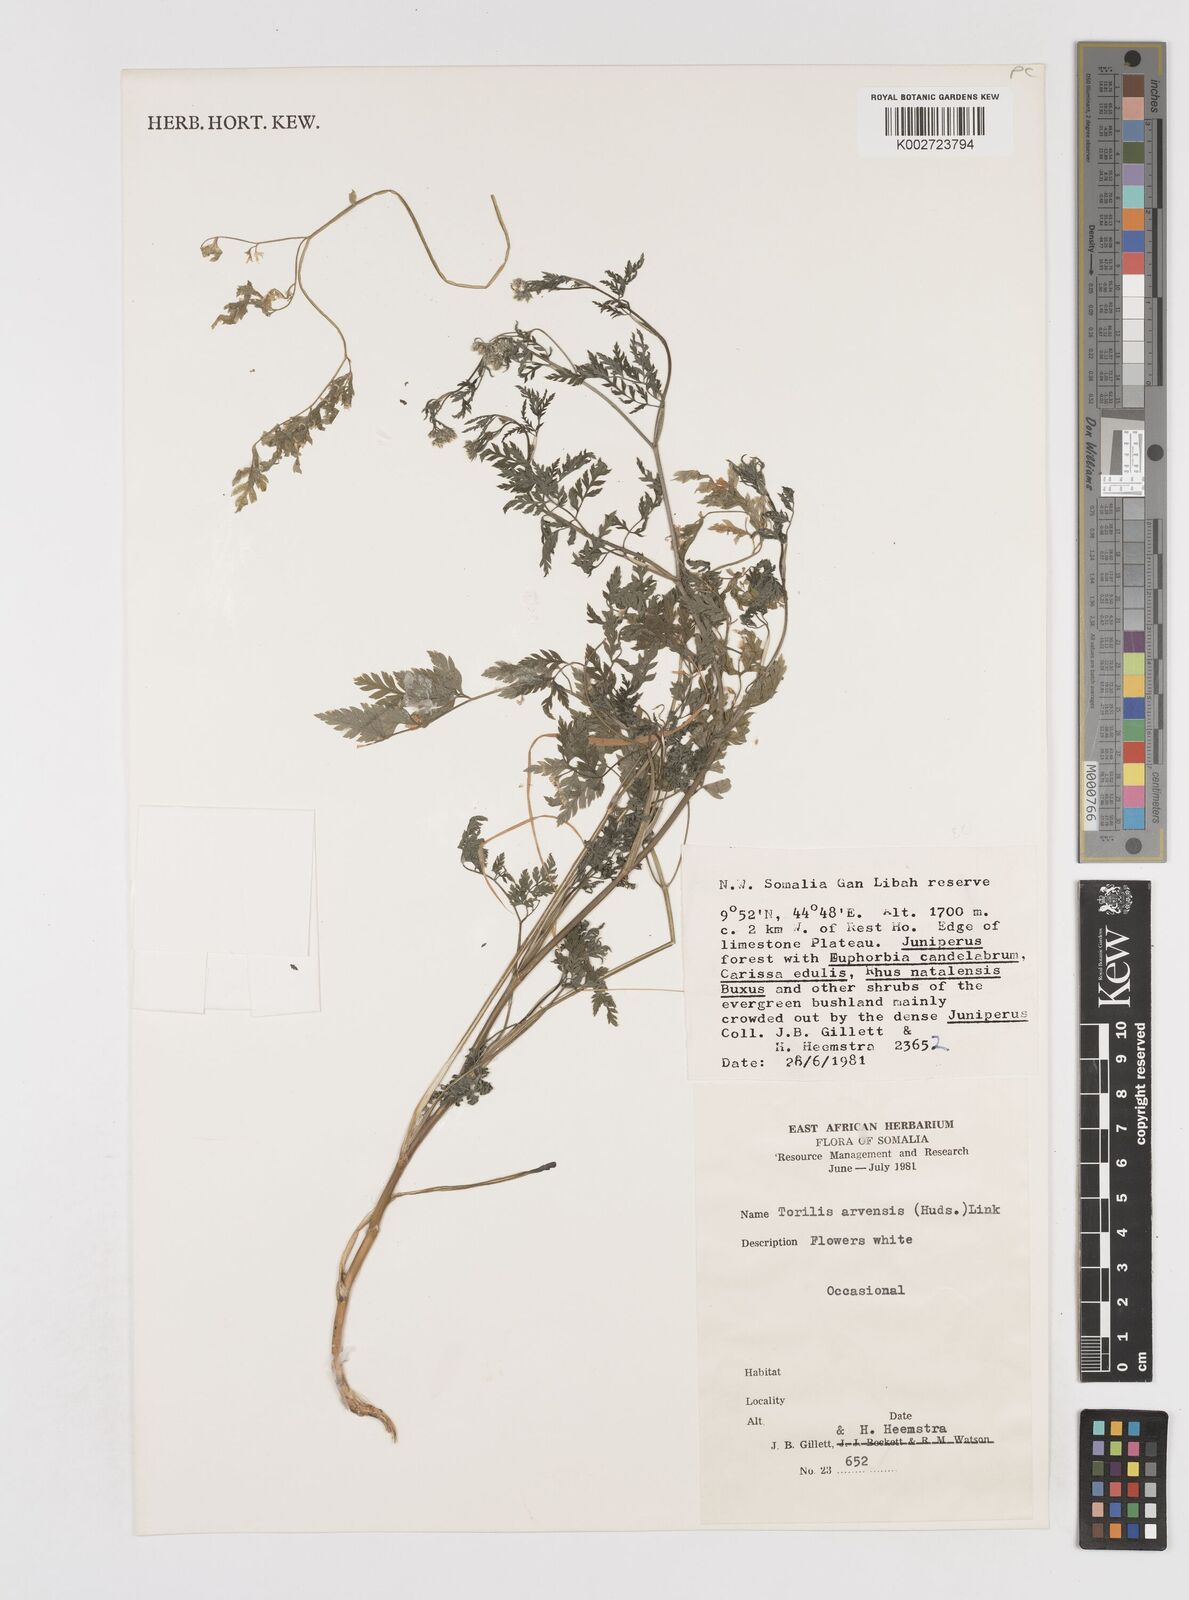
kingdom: Plantae
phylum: Tracheophyta
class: Magnoliopsida
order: Apiales
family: Apiaceae
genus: Torilis
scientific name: Torilis arvensis
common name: Spreading hedge-parsley
